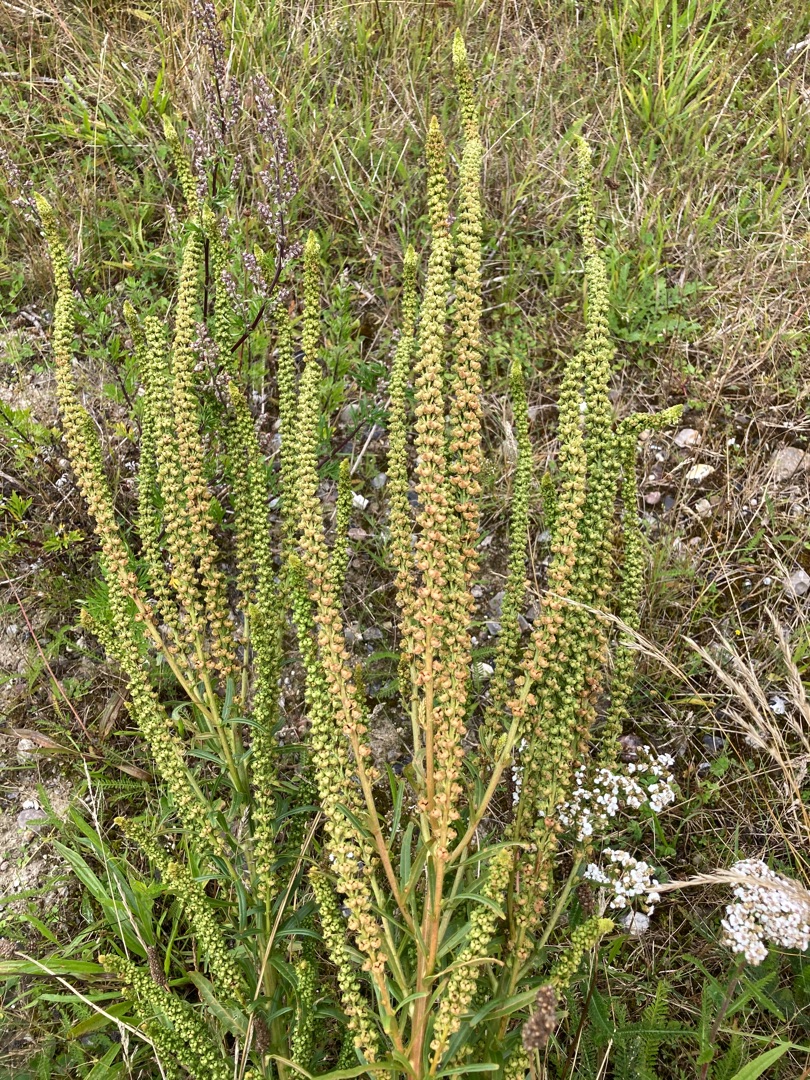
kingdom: Plantae
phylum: Tracheophyta
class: Magnoliopsida
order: Brassicales
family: Resedaceae
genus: Reseda
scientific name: Reseda luteola
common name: Farve-reseda
